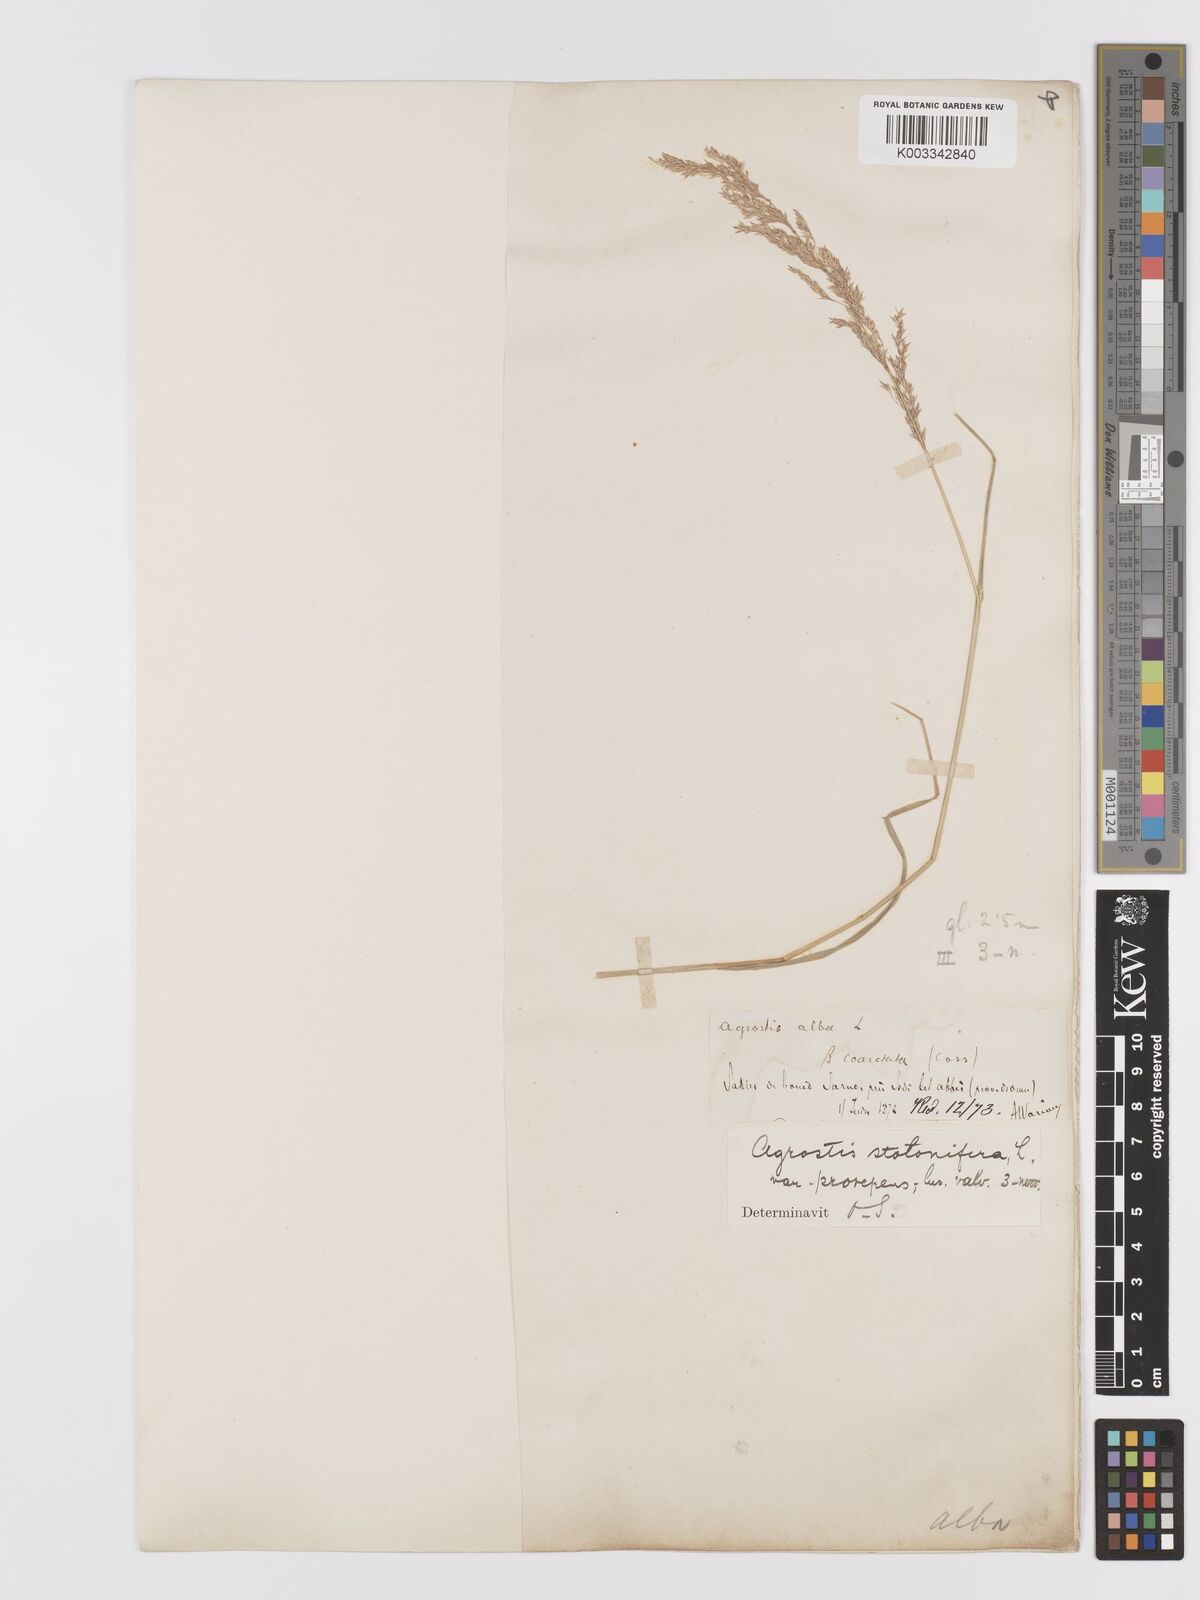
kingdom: Plantae
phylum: Tracheophyta
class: Liliopsida
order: Poales
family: Poaceae
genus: Agrostis
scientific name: Agrostis stolonifera
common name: Creeping bentgrass
